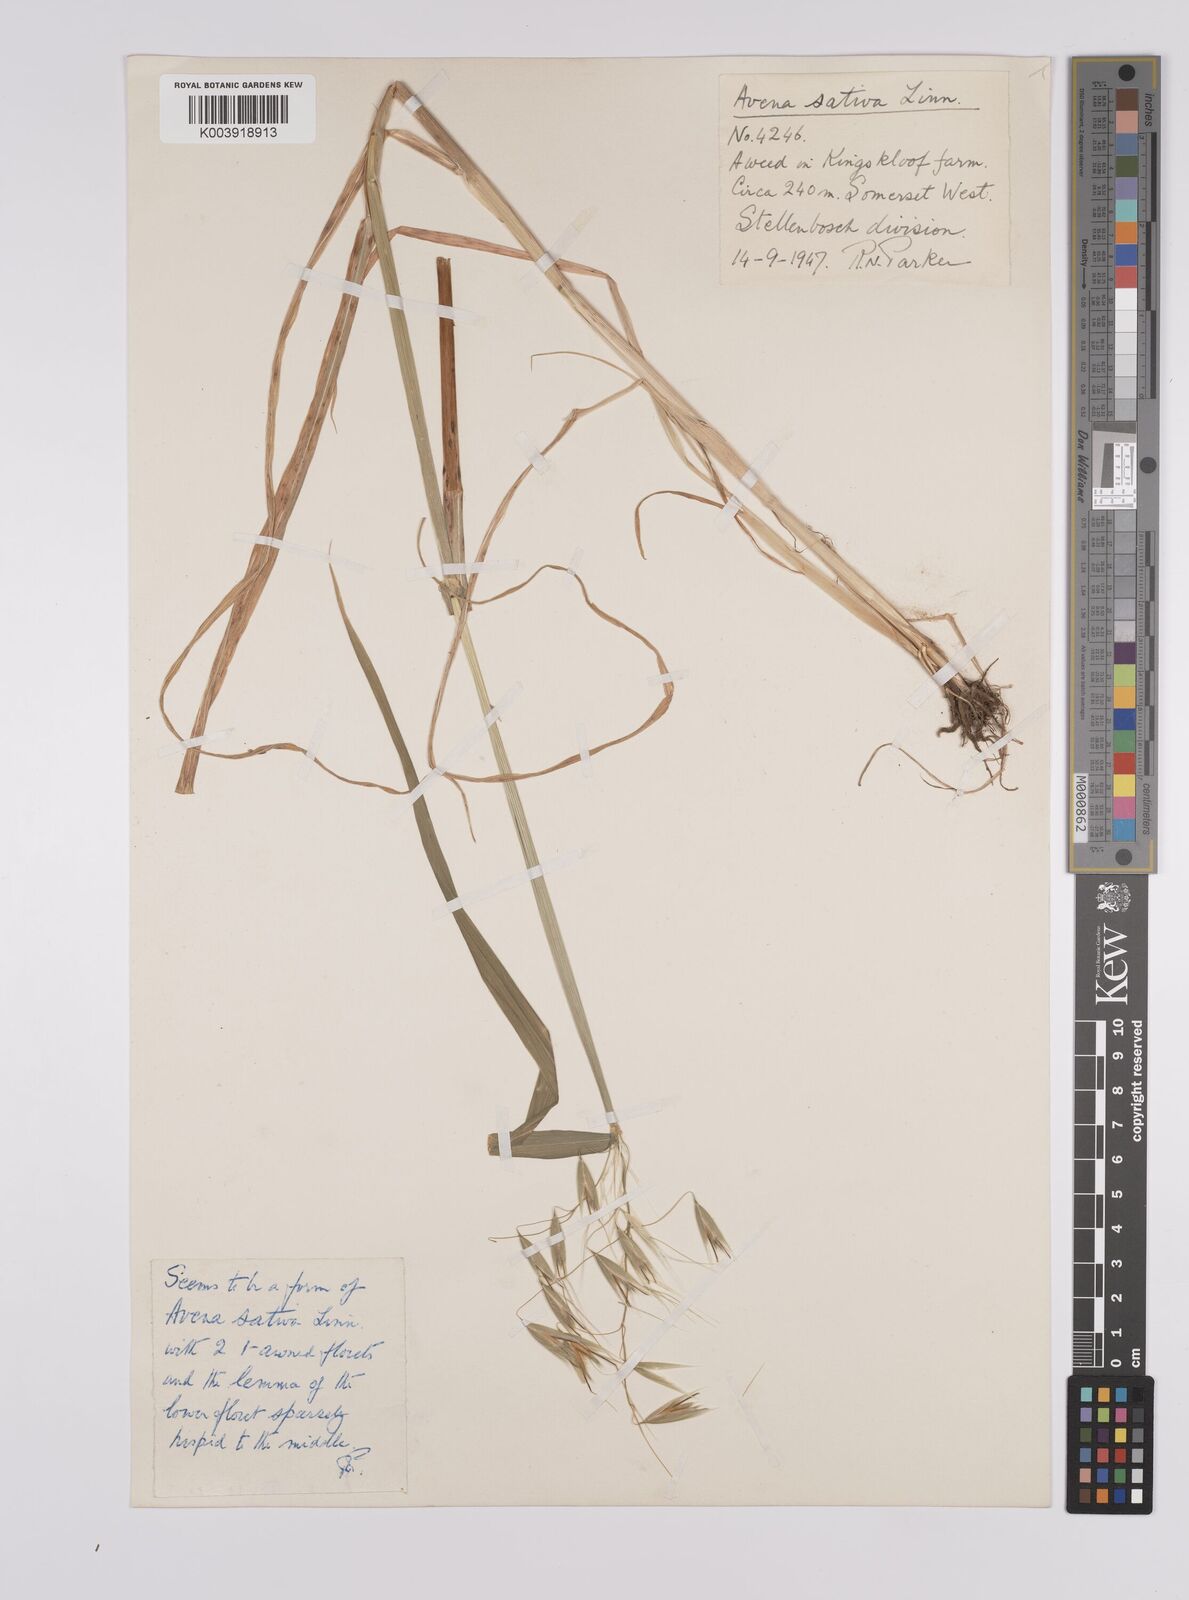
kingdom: Plantae
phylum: Tracheophyta
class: Liliopsida
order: Poales
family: Poaceae
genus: Avena
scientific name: Avena sativa
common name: Oat
